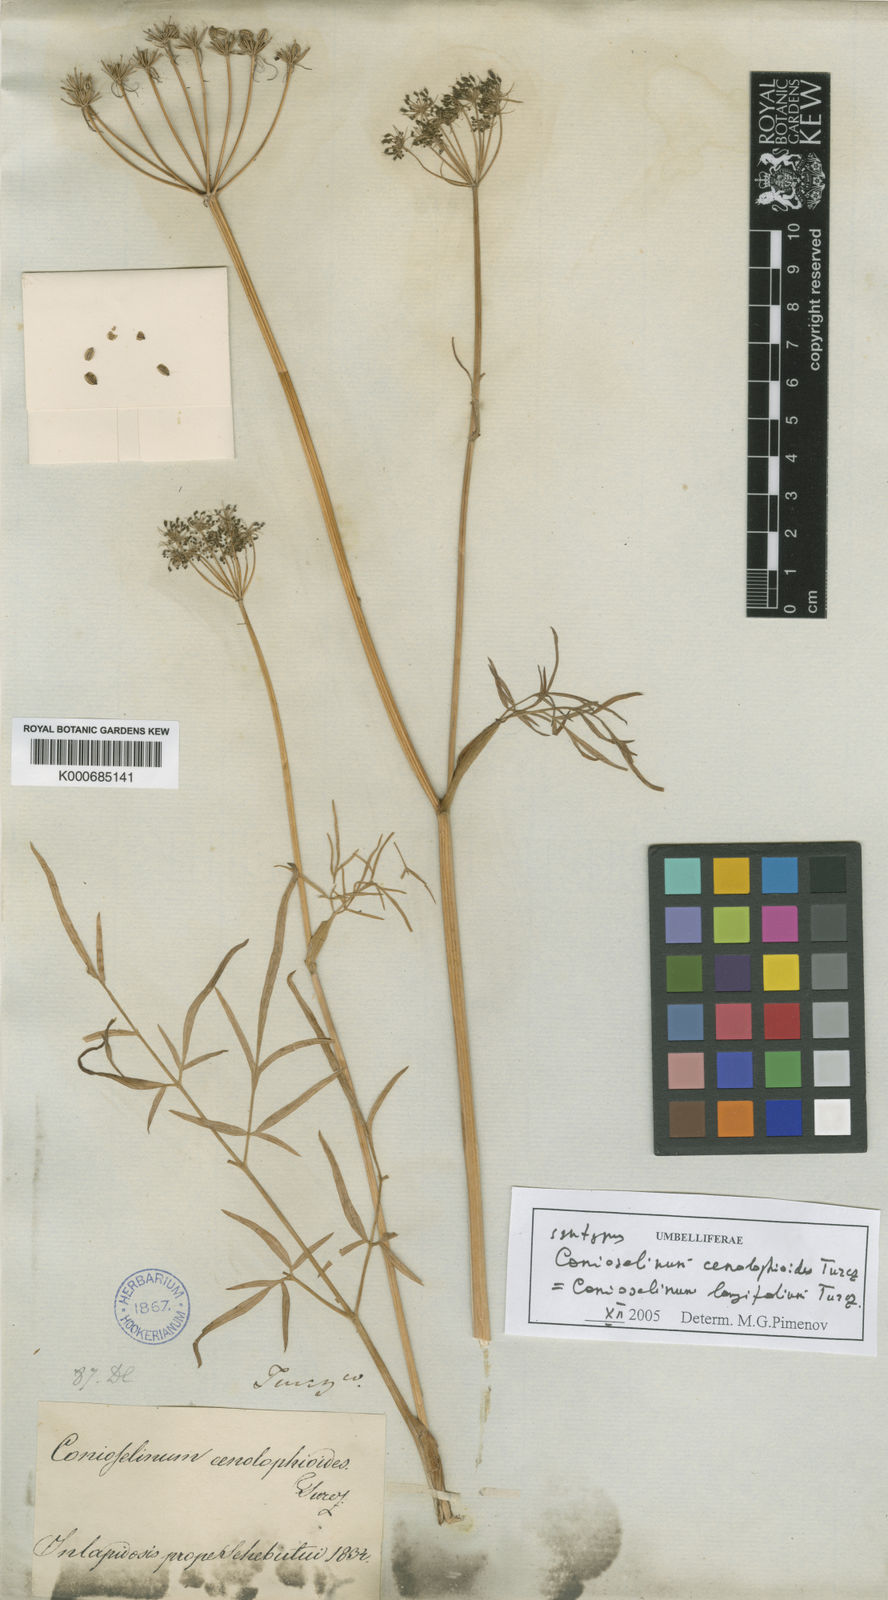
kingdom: Plantae
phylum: Tracheophyta
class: Magnoliopsida
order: Apiales
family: Apiaceae
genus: Conioselinum
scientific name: Conioselinum longifolium
